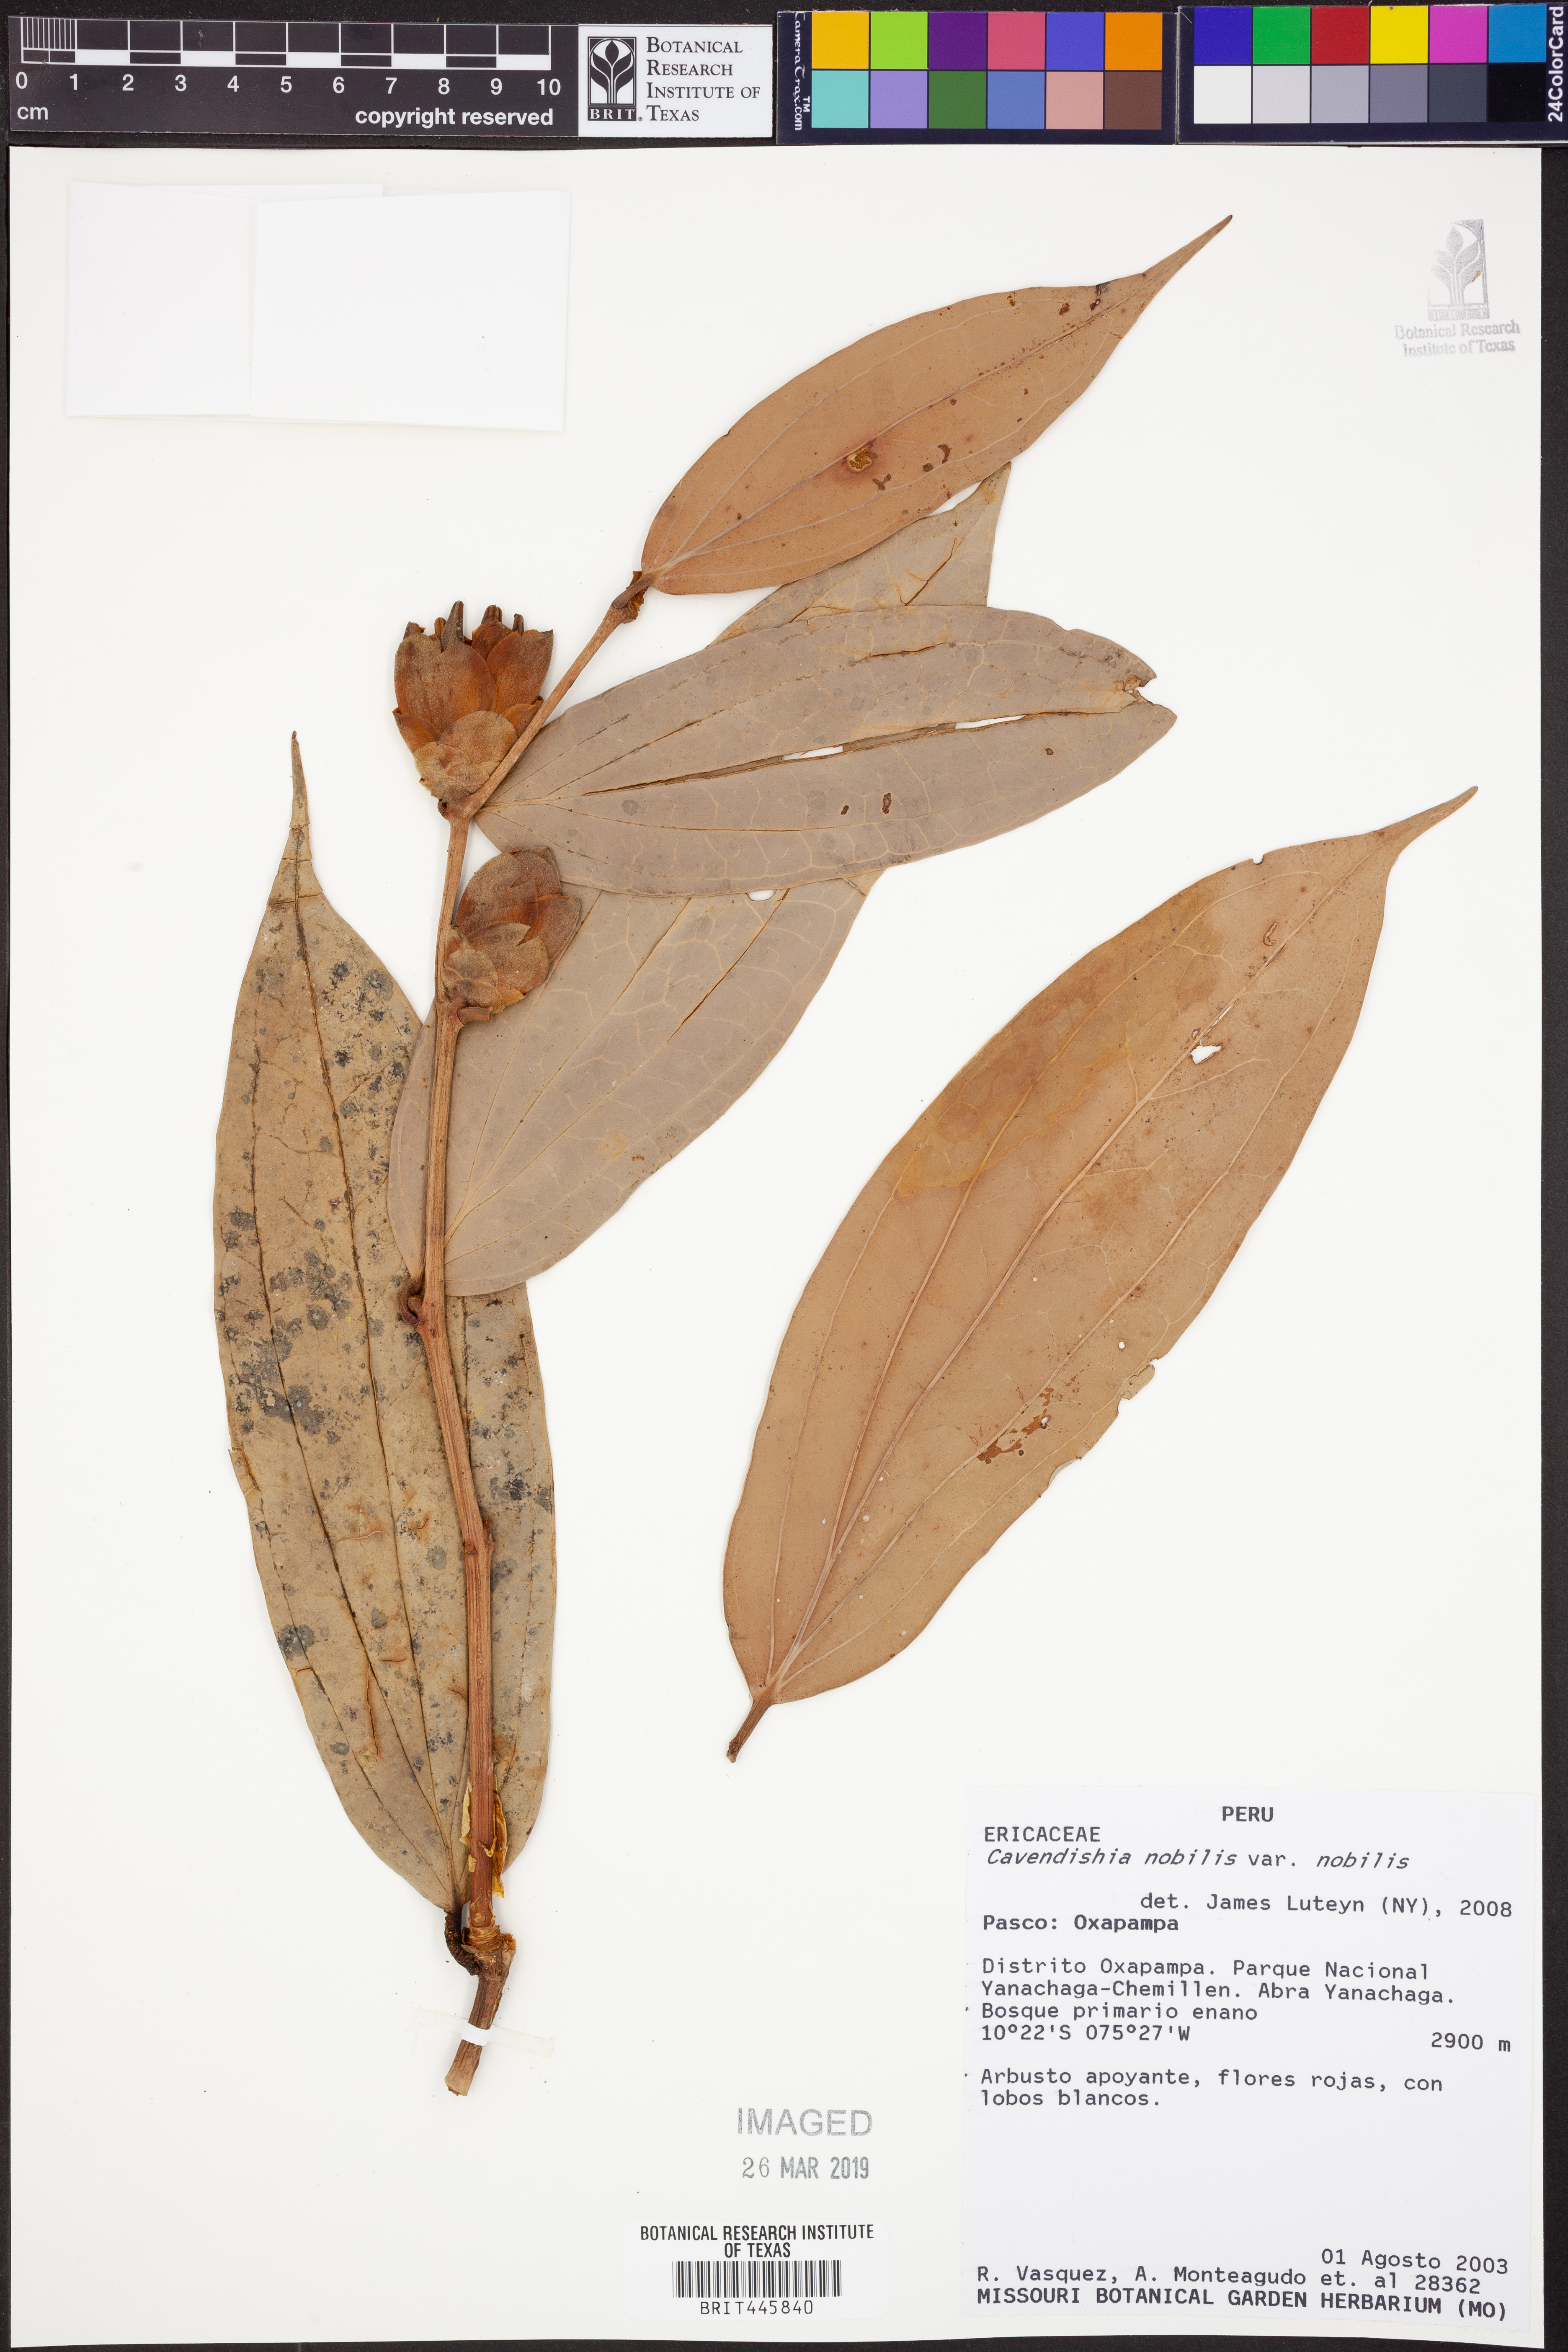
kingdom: Plantae
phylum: Tracheophyta
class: Magnoliopsida
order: Ericales
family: Ericaceae
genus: Cavendishia
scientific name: Cavendishia nobilis
